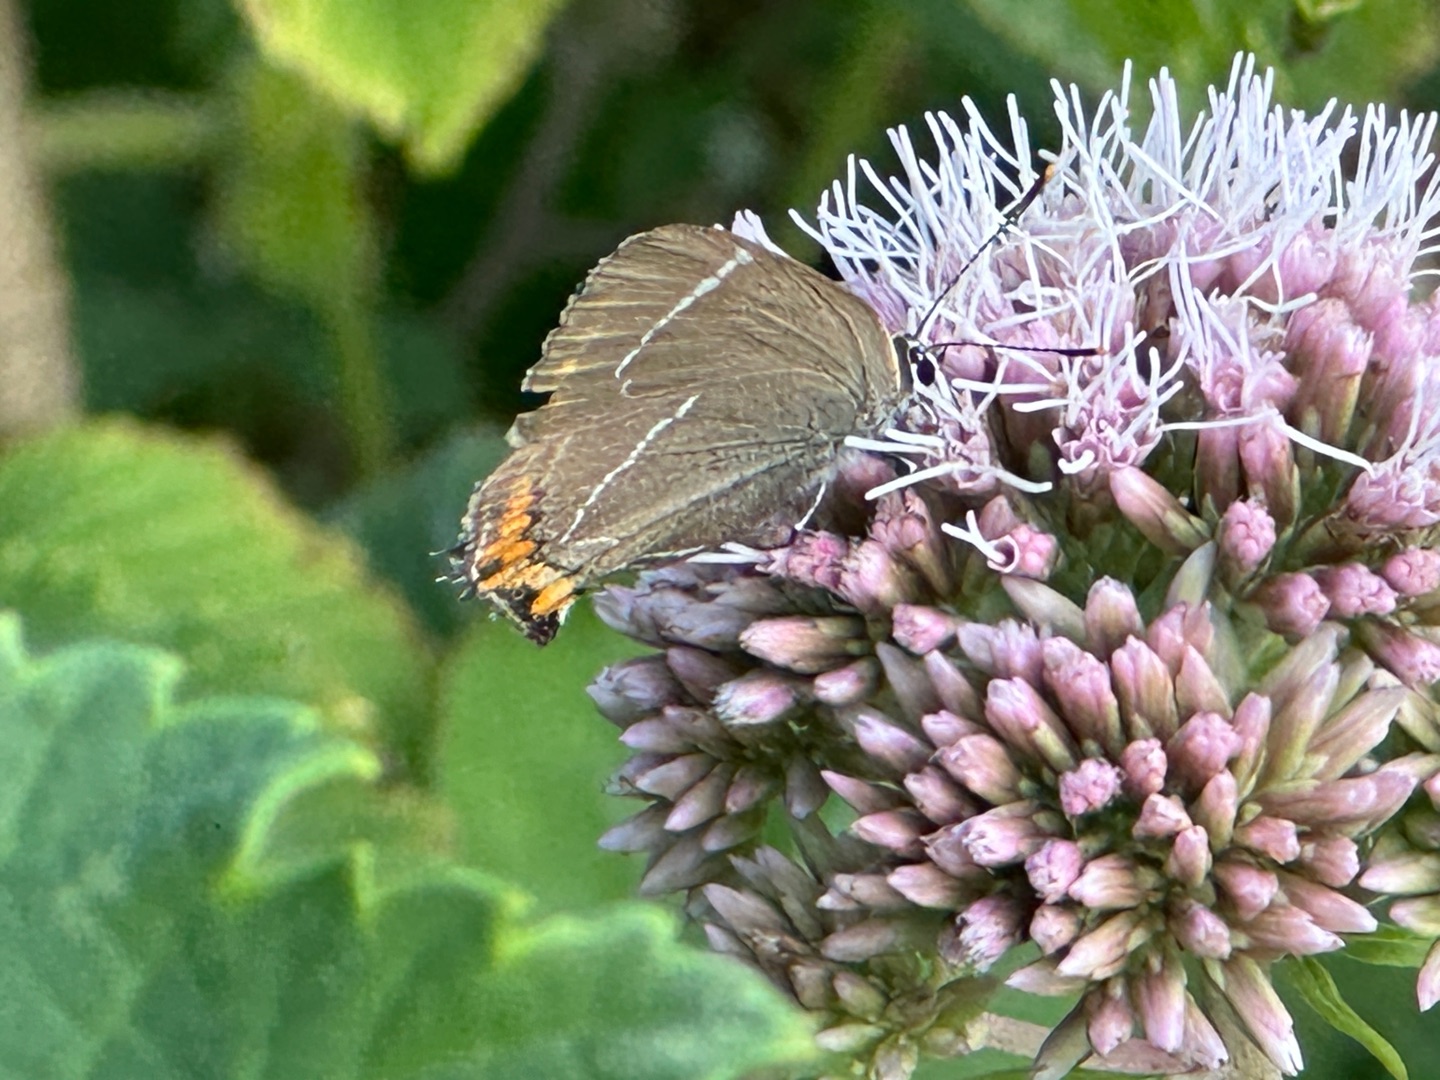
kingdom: Animalia
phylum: Arthropoda
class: Insecta
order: Lepidoptera
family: Lycaenidae
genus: Satyrium
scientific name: Satyrium w-album
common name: Det hvide W
